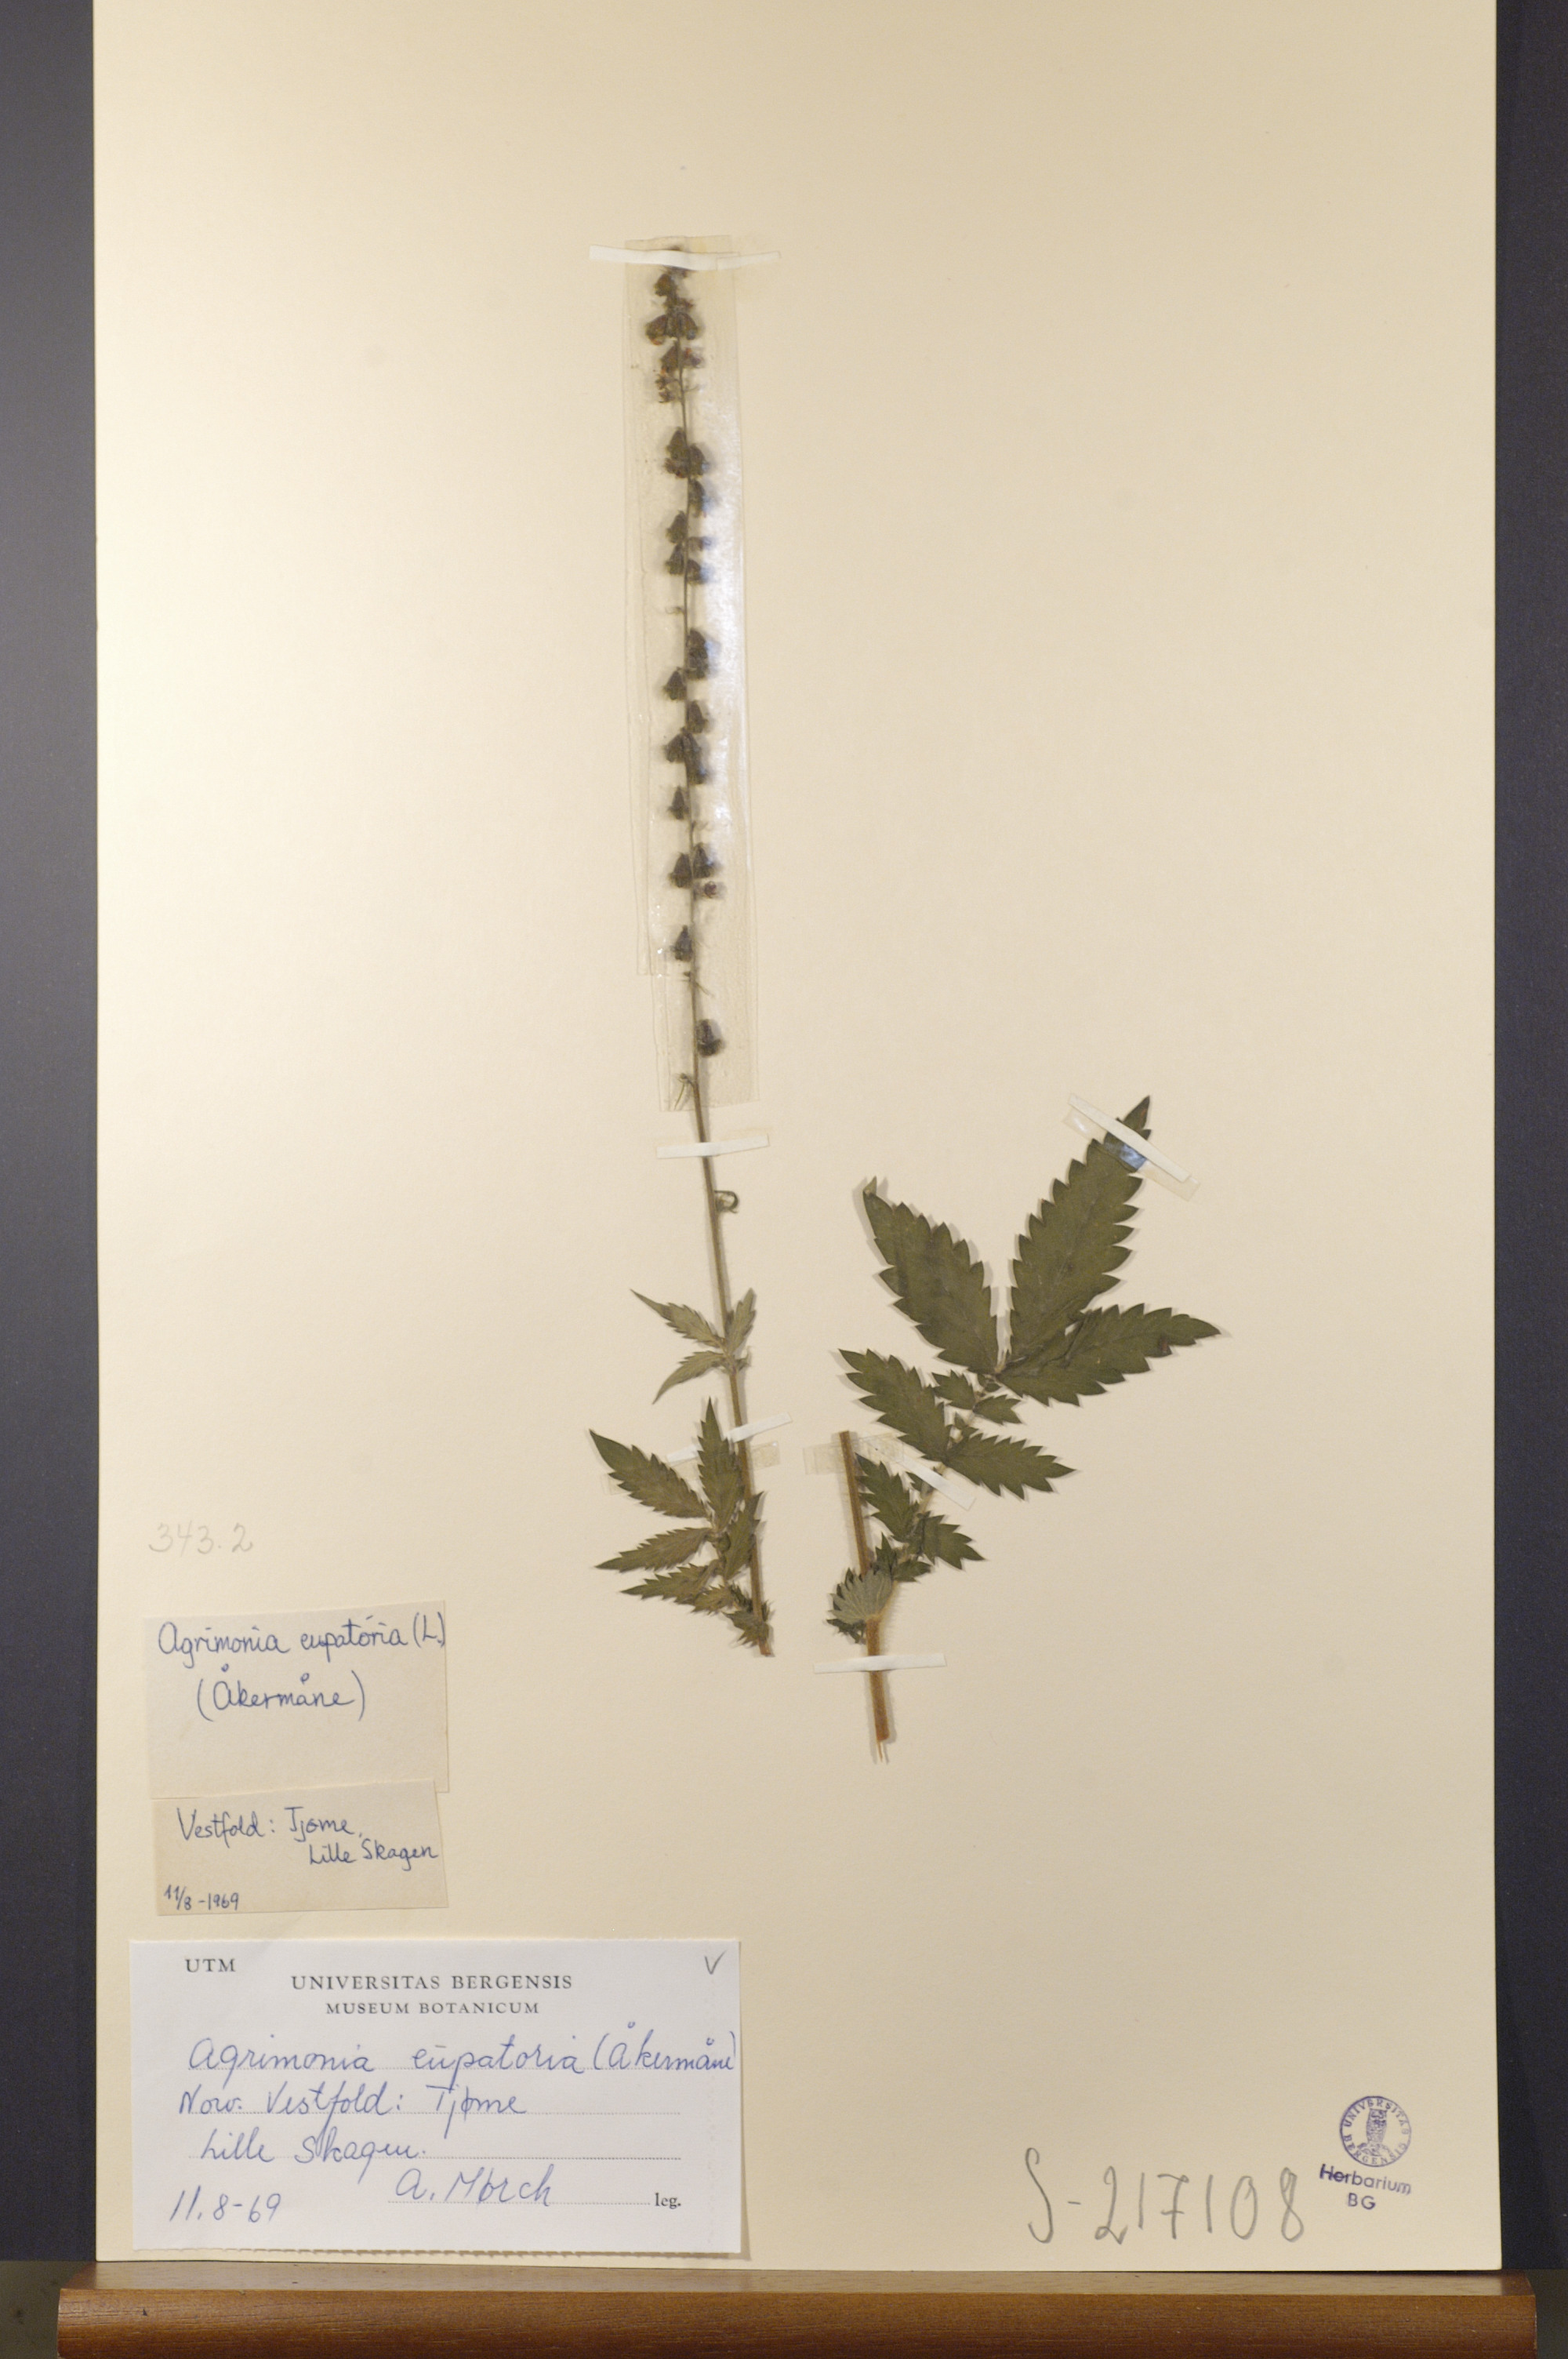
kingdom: Plantae
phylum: Tracheophyta
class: Magnoliopsida
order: Rosales
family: Rosaceae
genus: Agrimonia
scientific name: Agrimonia eupatoria
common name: Agrimony
